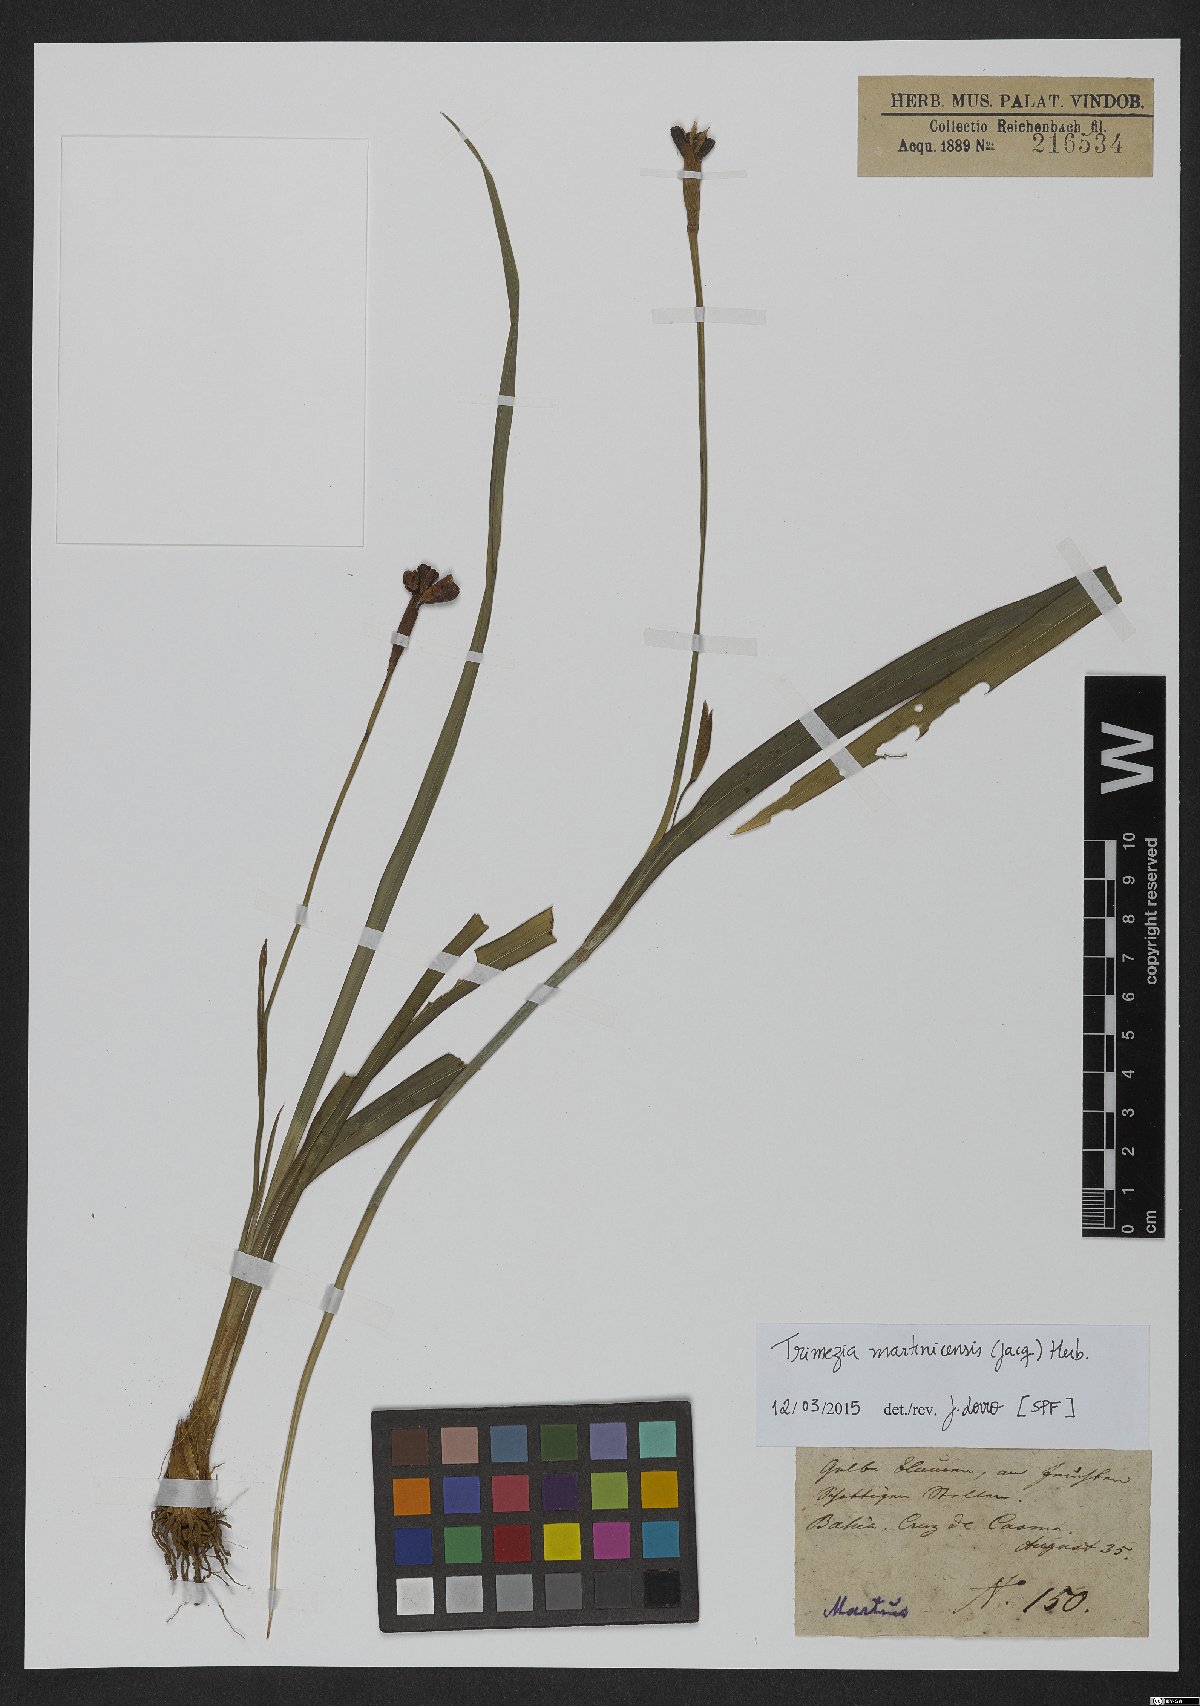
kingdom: Plantae
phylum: Tracheophyta
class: Liliopsida
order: Asparagales
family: Iridaceae
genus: Trimezia
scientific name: Trimezia martinicensis
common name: Martinique trimezia
